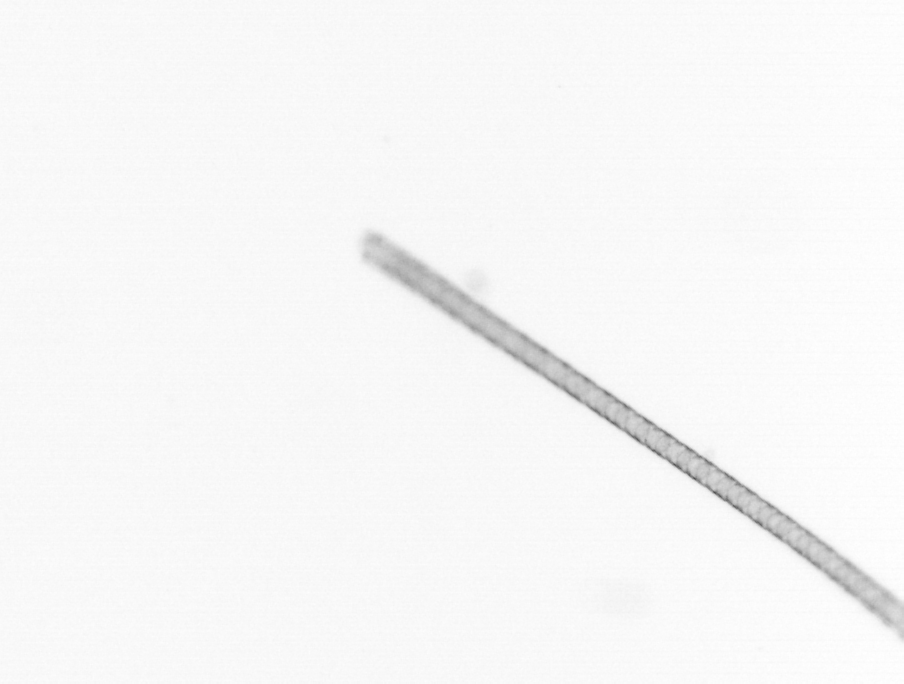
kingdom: Chromista
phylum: Ochrophyta
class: Bacillariophyceae
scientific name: Bacillariophyceae
